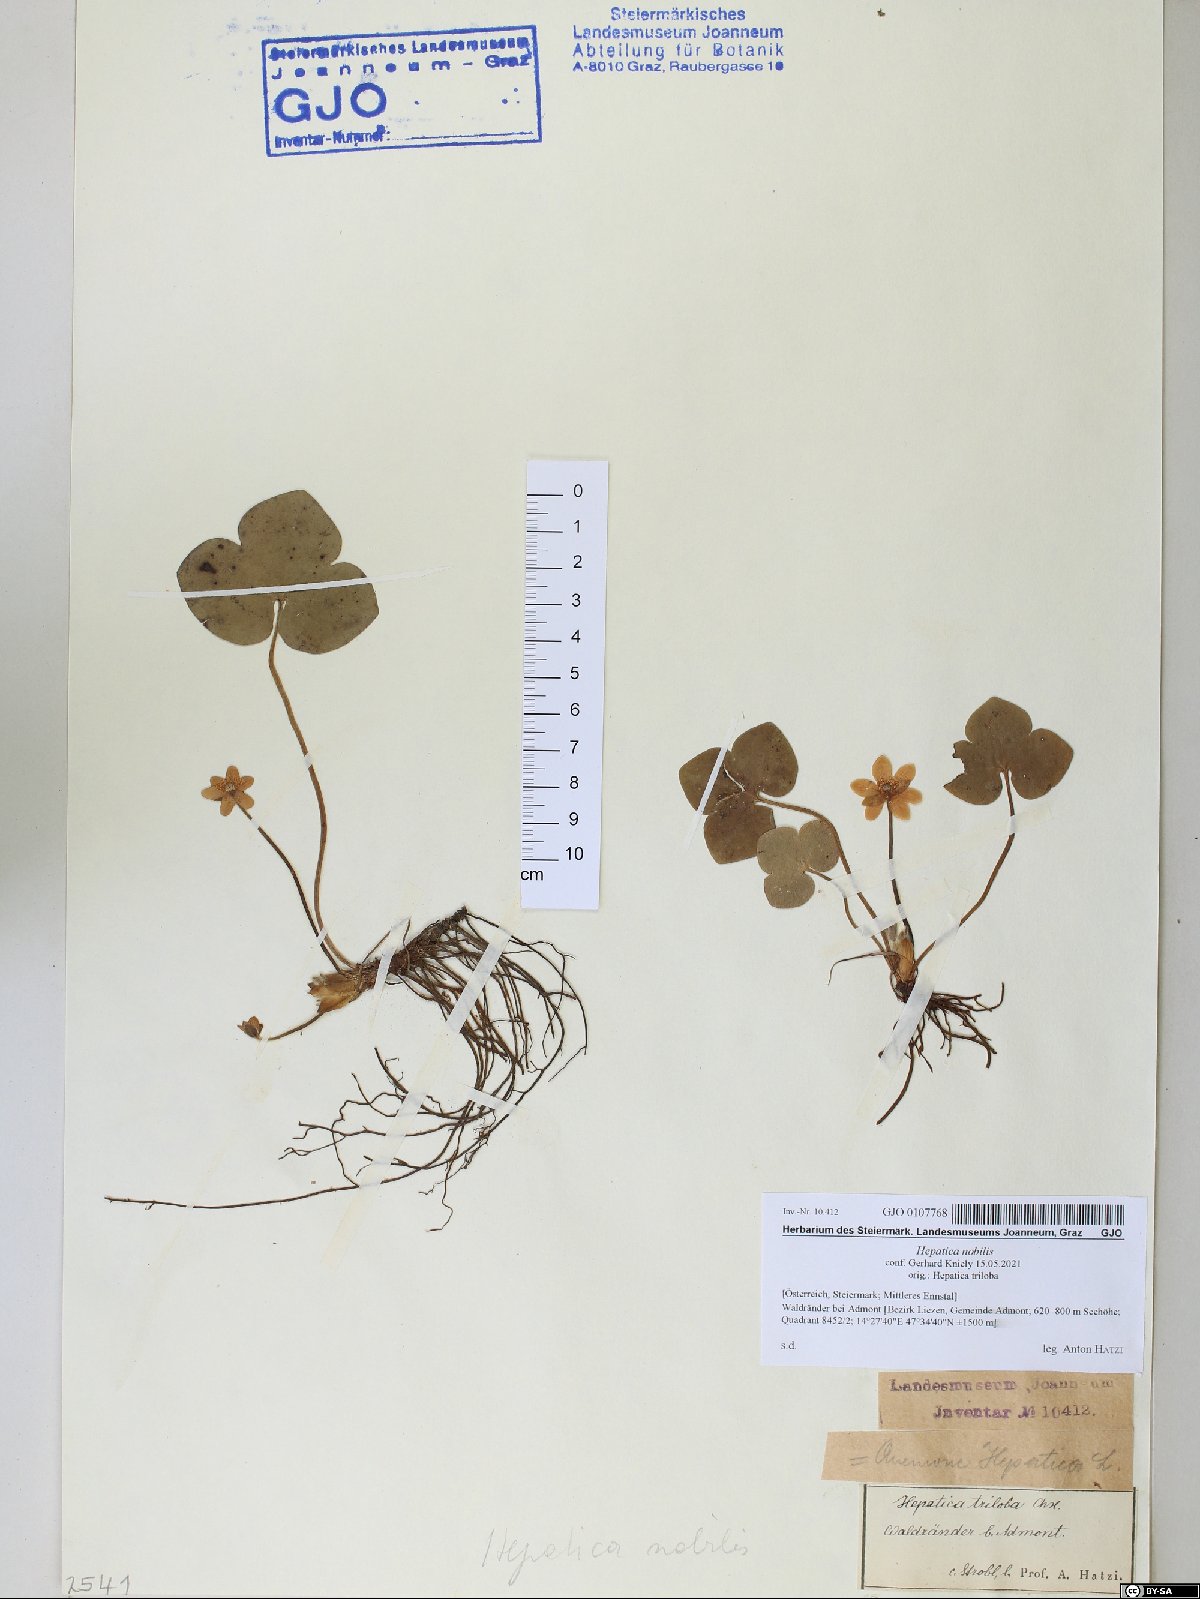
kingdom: Plantae
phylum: Tracheophyta
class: Magnoliopsida
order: Ranunculales
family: Ranunculaceae
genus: Hepatica
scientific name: Hepatica nobilis
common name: Liverleaf
